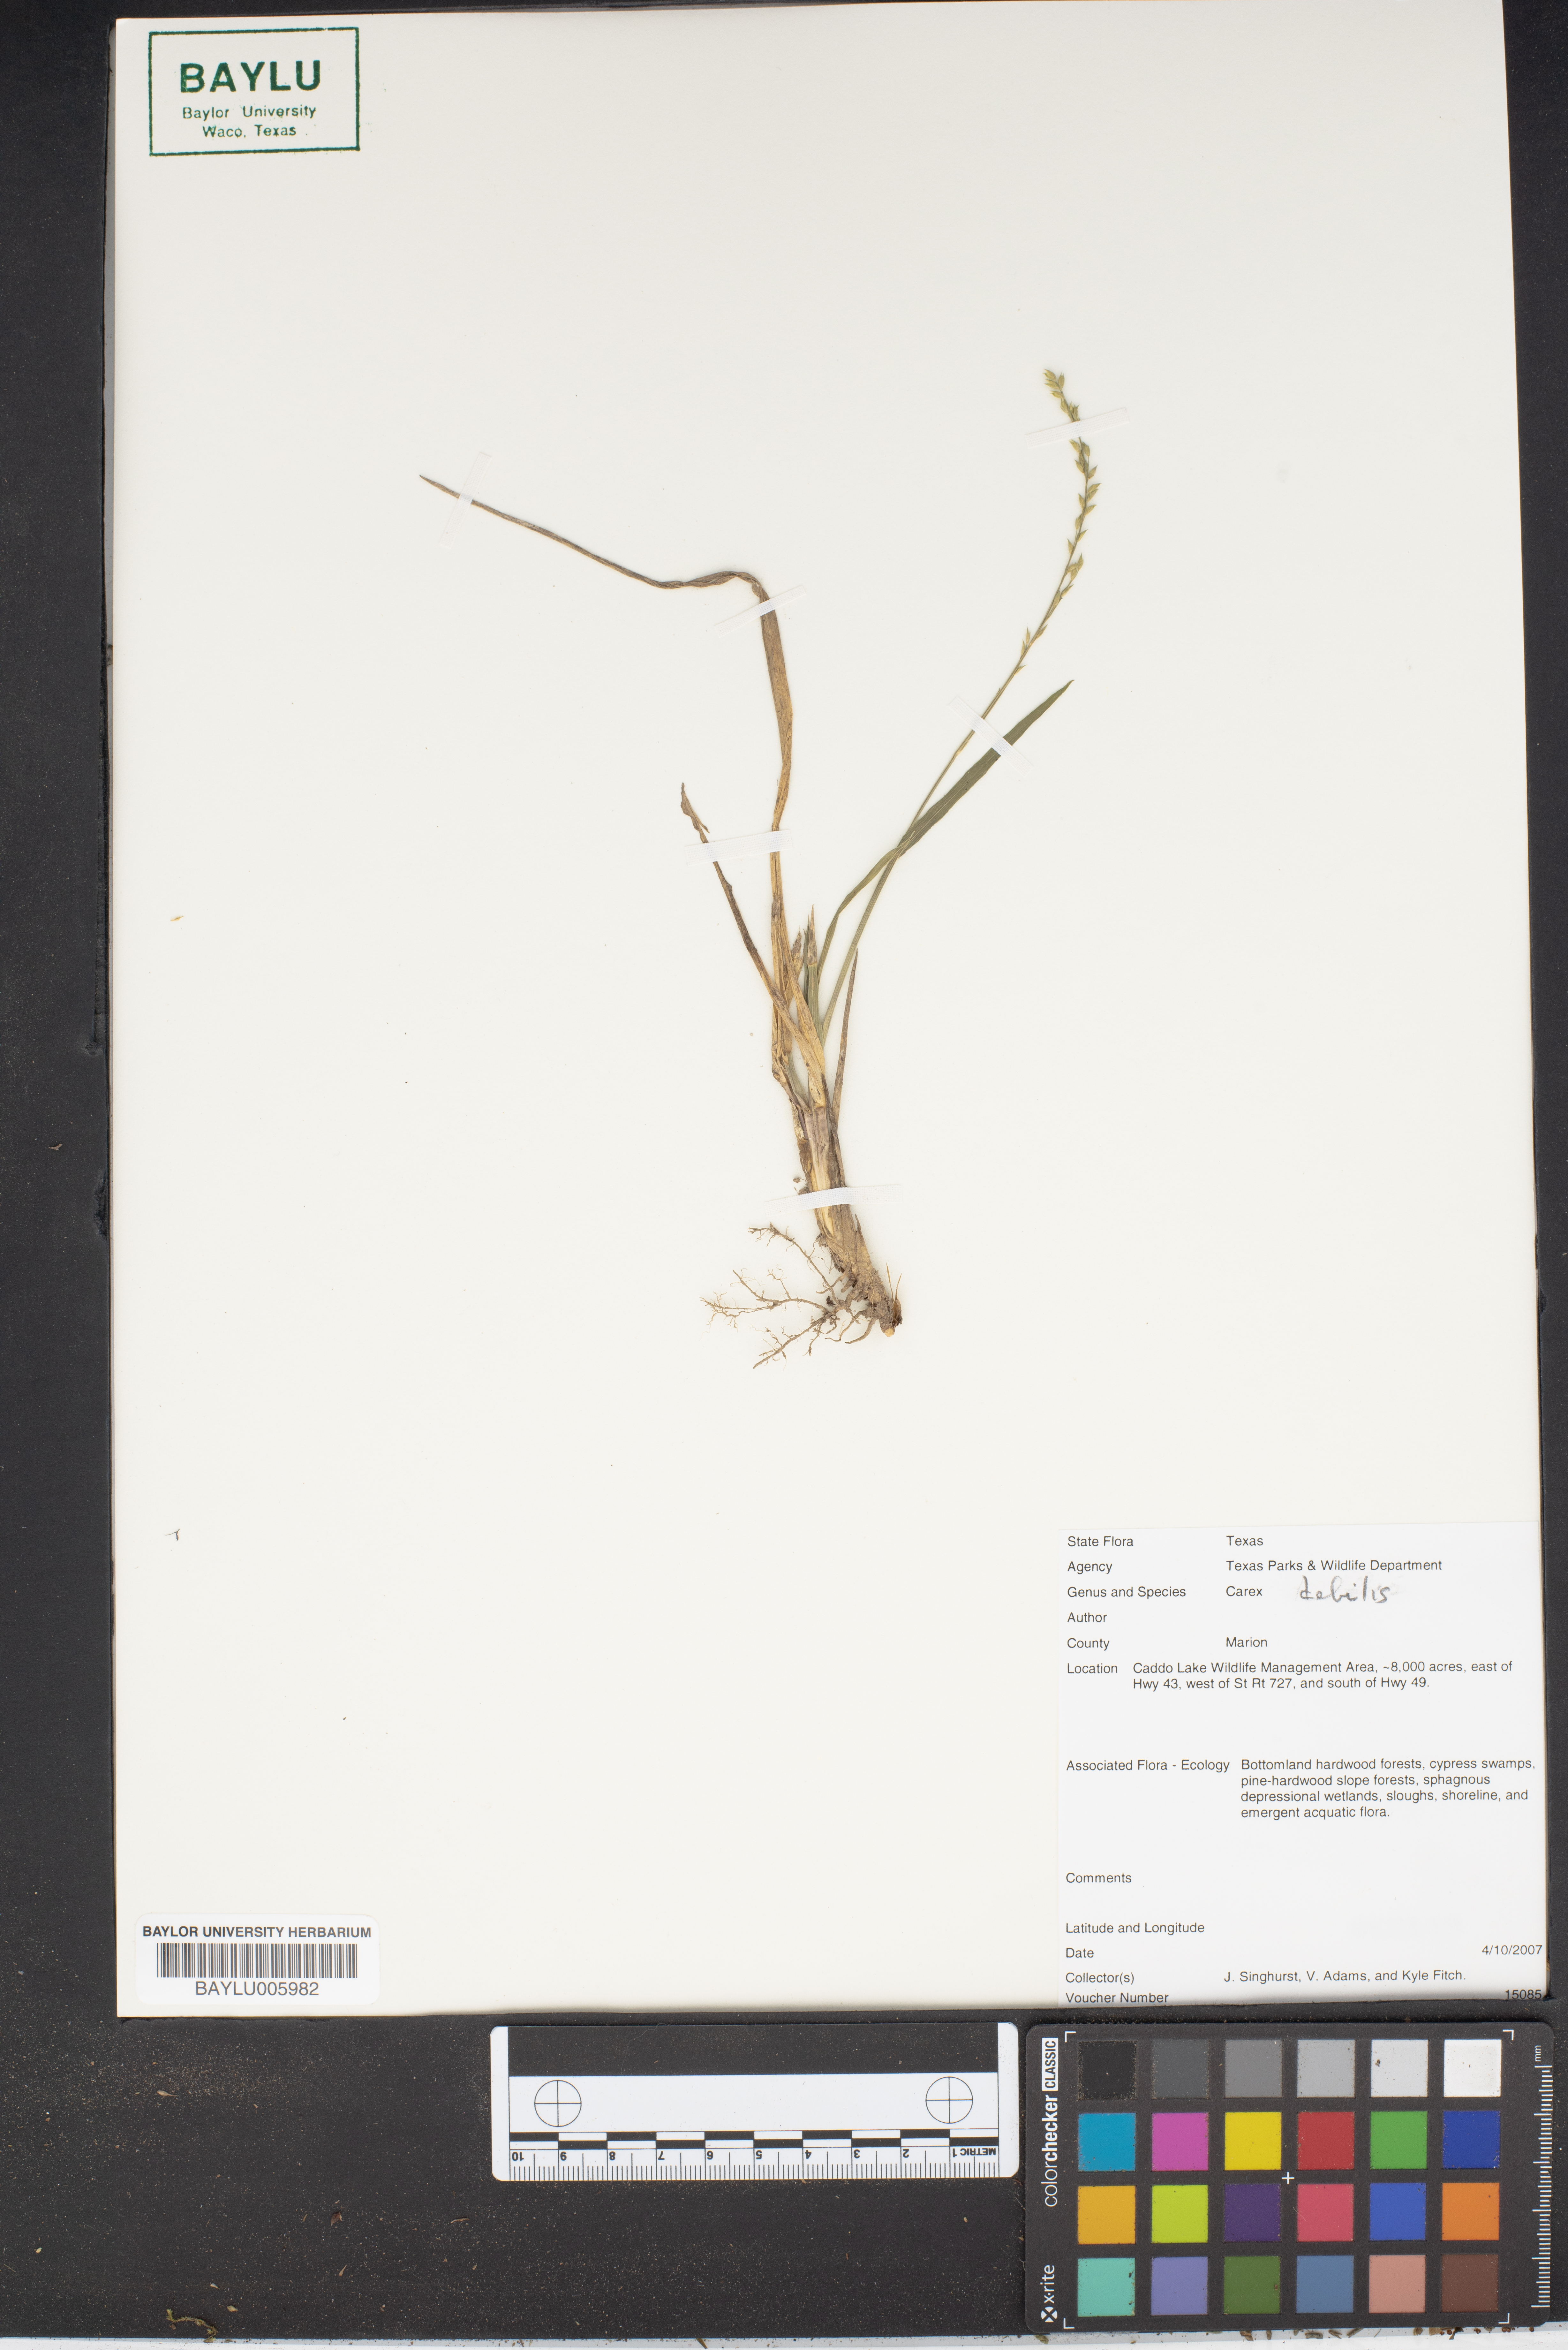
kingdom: Plantae
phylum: Tracheophyta
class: Liliopsida
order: Poales
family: Cyperaceae
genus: Carex
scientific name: Carex debilis
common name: White-edge sedge
